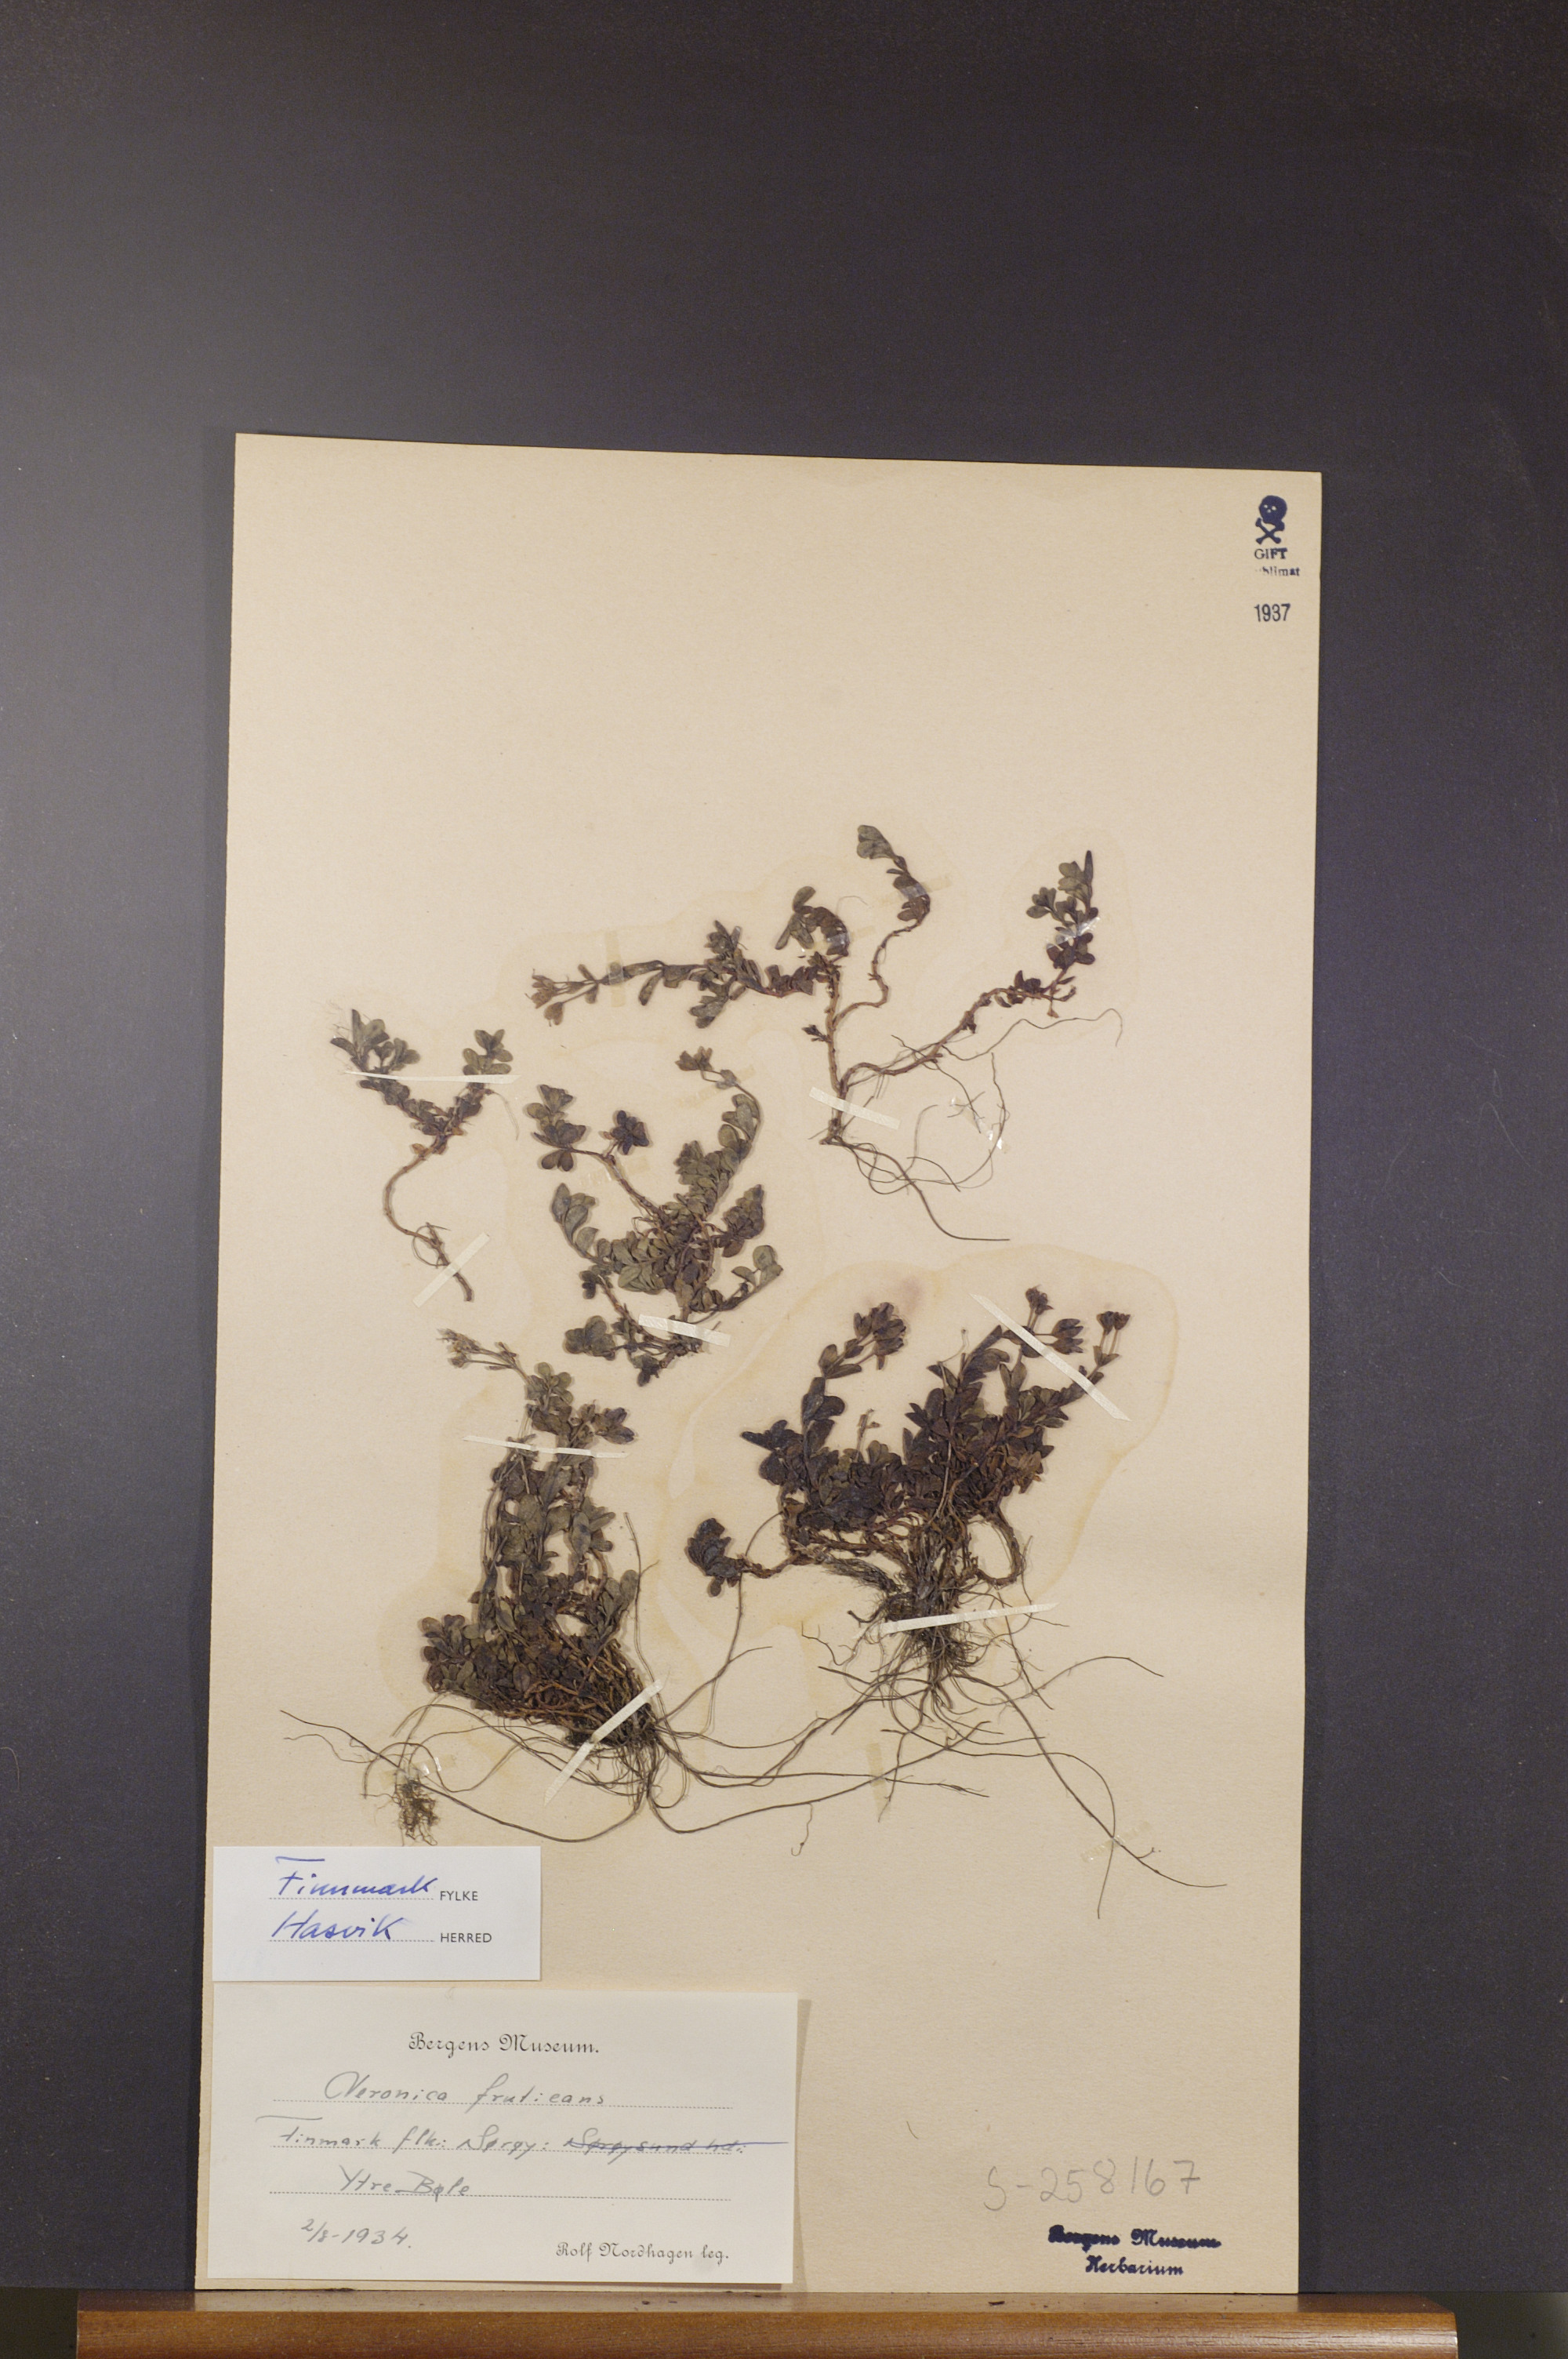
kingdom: Plantae
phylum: Tracheophyta
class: Magnoliopsida
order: Lamiales
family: Plantaginaceae
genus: Veronica
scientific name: Veronica fruticans
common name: Rock speedwell
